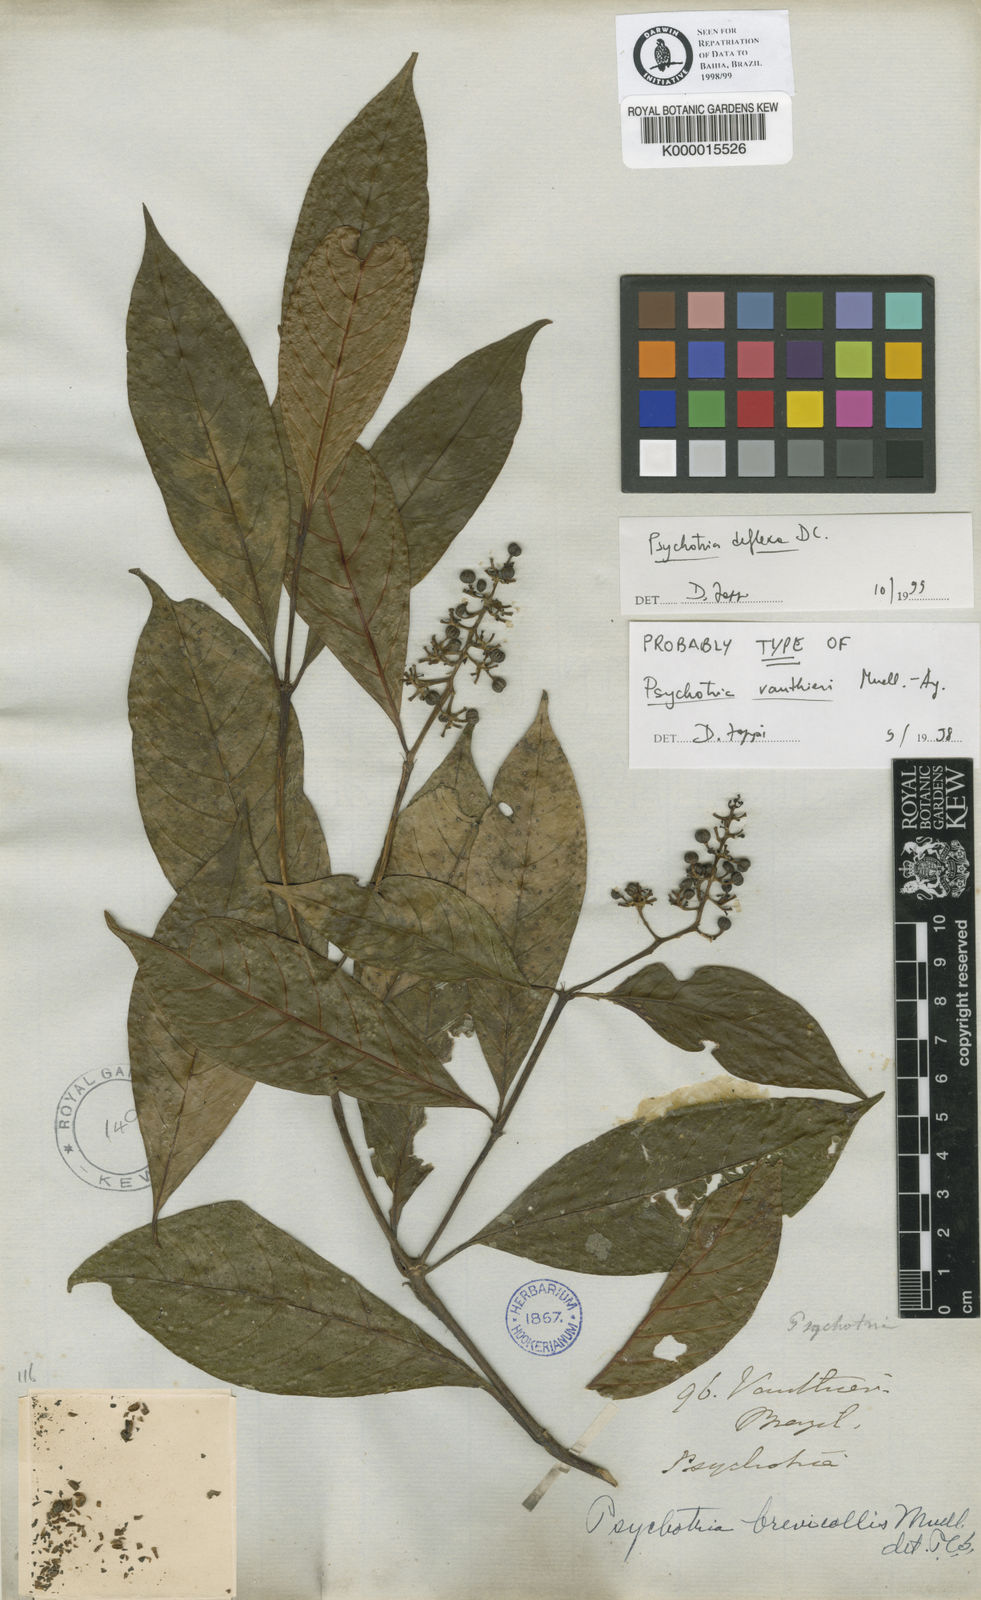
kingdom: Plantae
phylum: Tracheophyta
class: Magnoliopsida
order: Gentianales
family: Rubiaceae
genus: Palicourea
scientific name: Palicourea deflexa
